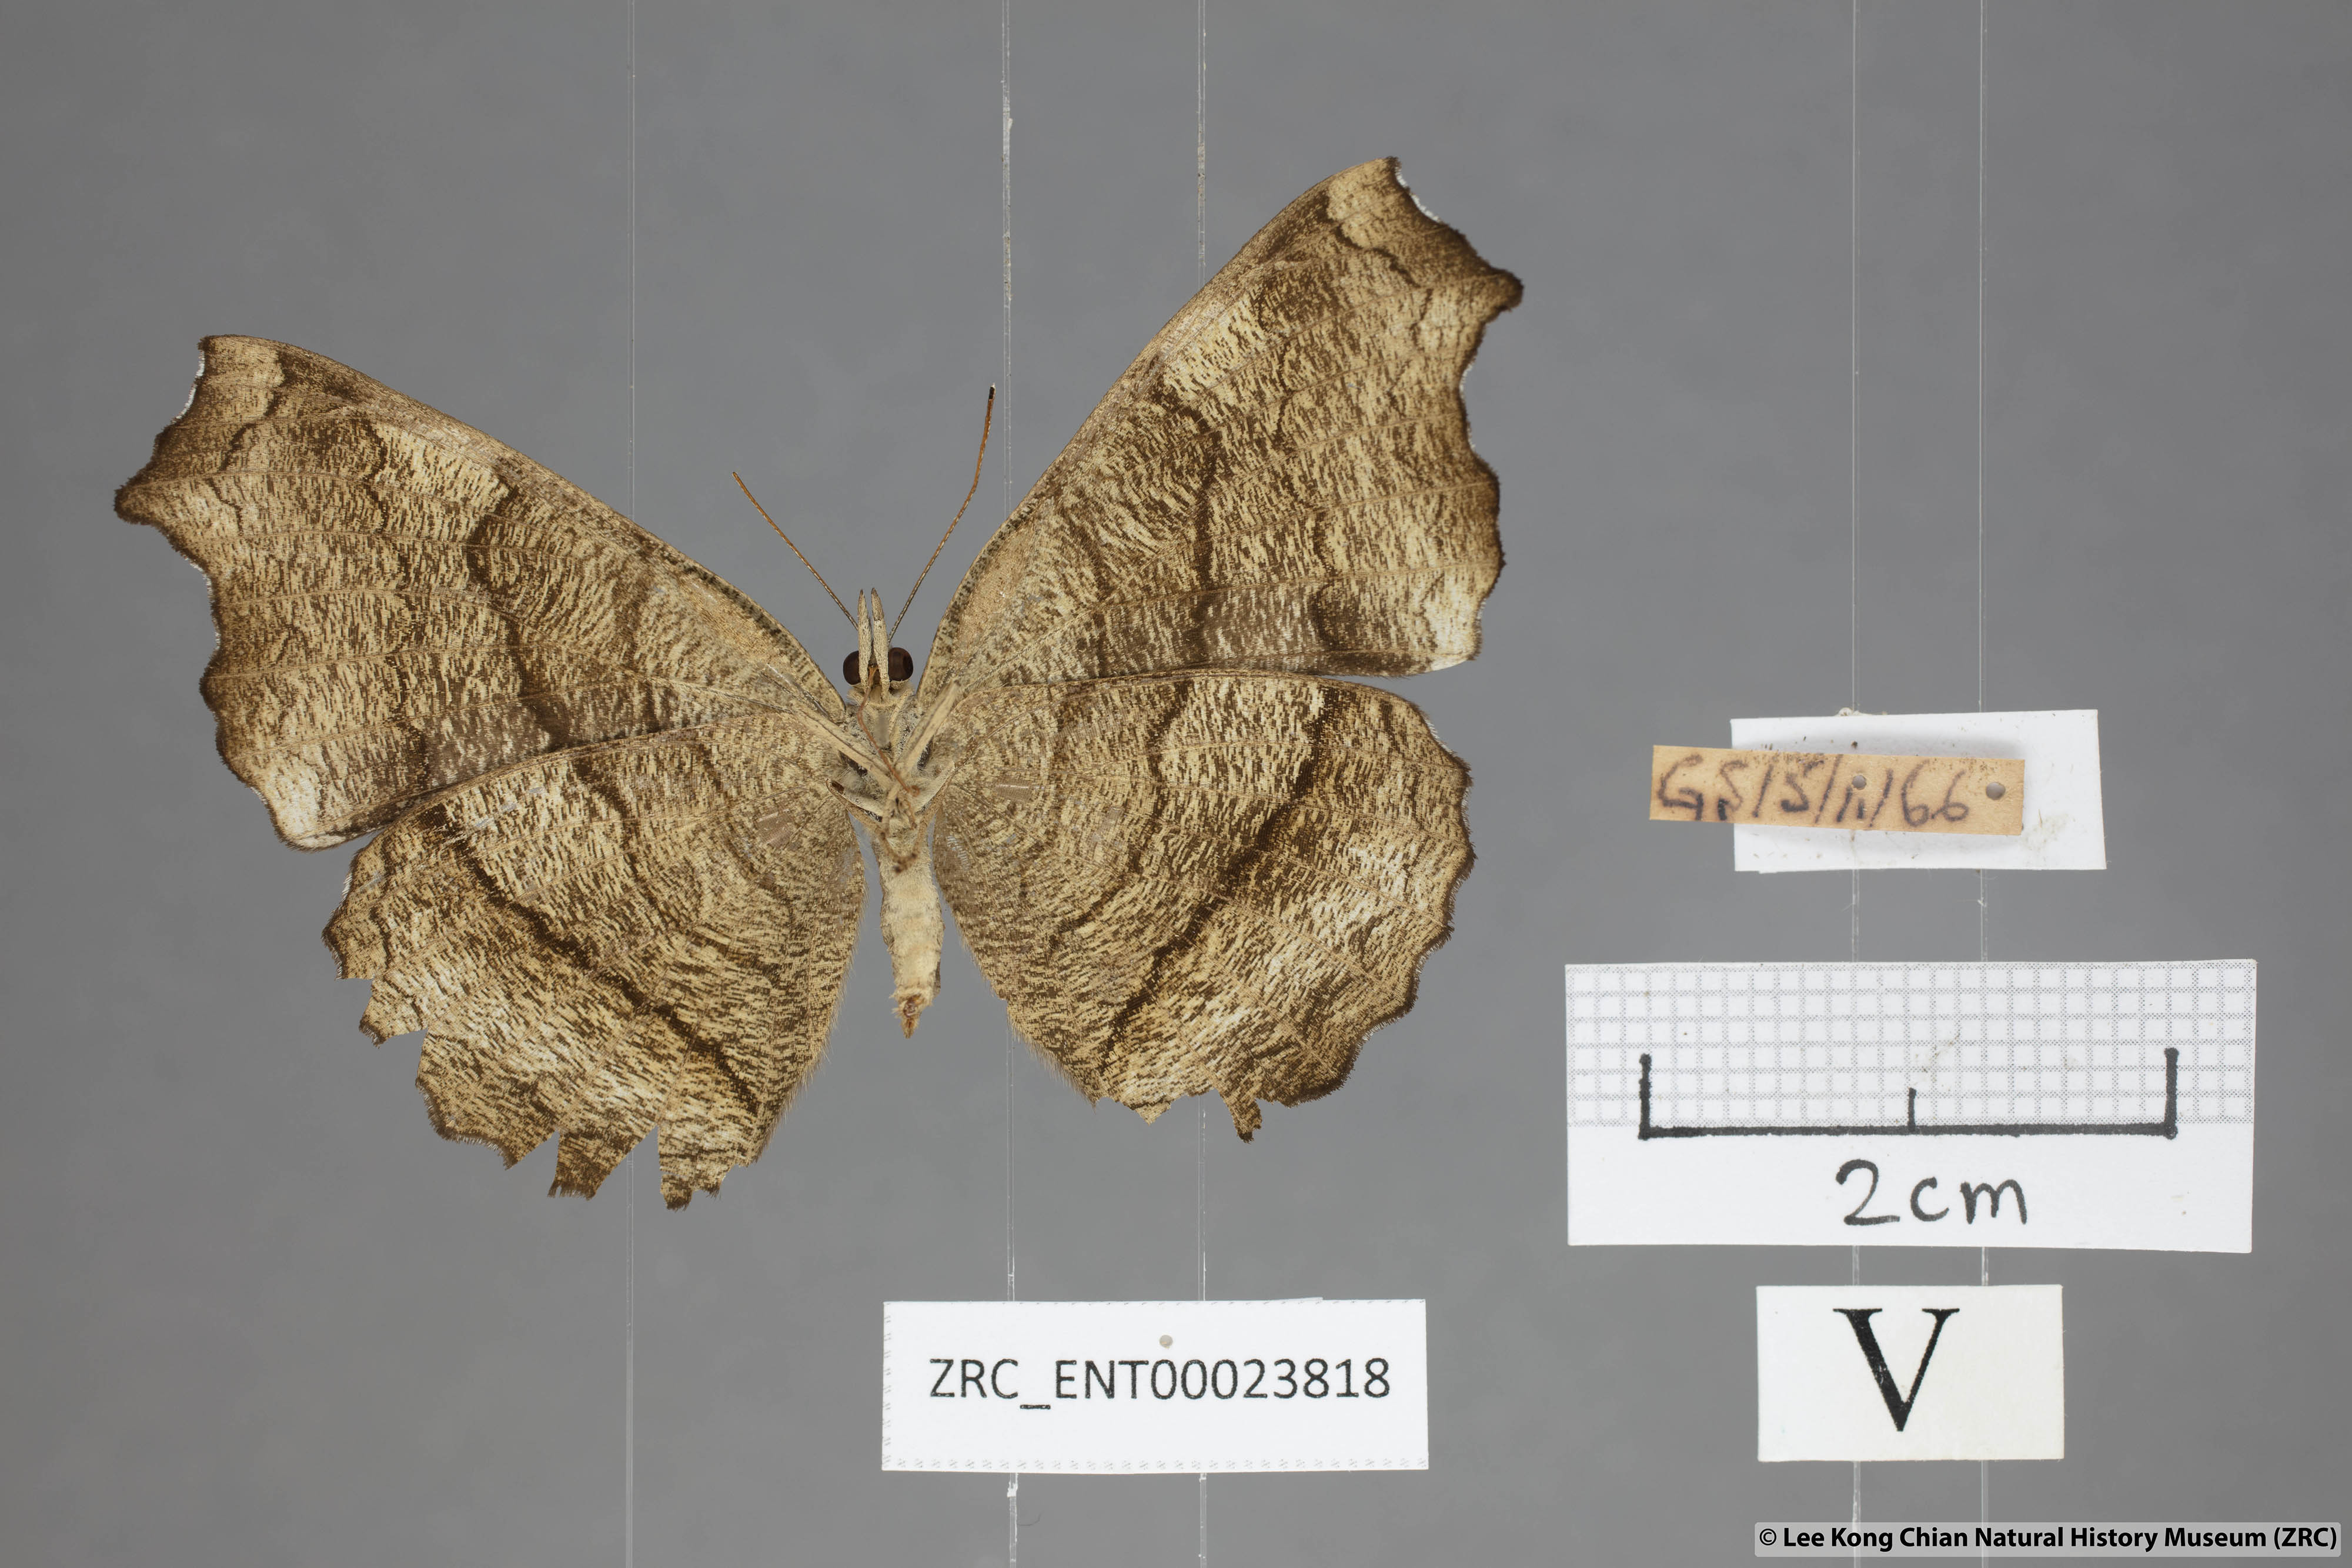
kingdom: Animalia
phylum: Arthropoda
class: Insecta
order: Lepidoptera
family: Nymphalidae
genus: Laringa
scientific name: Laringa castelnaui
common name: Blue dandy
